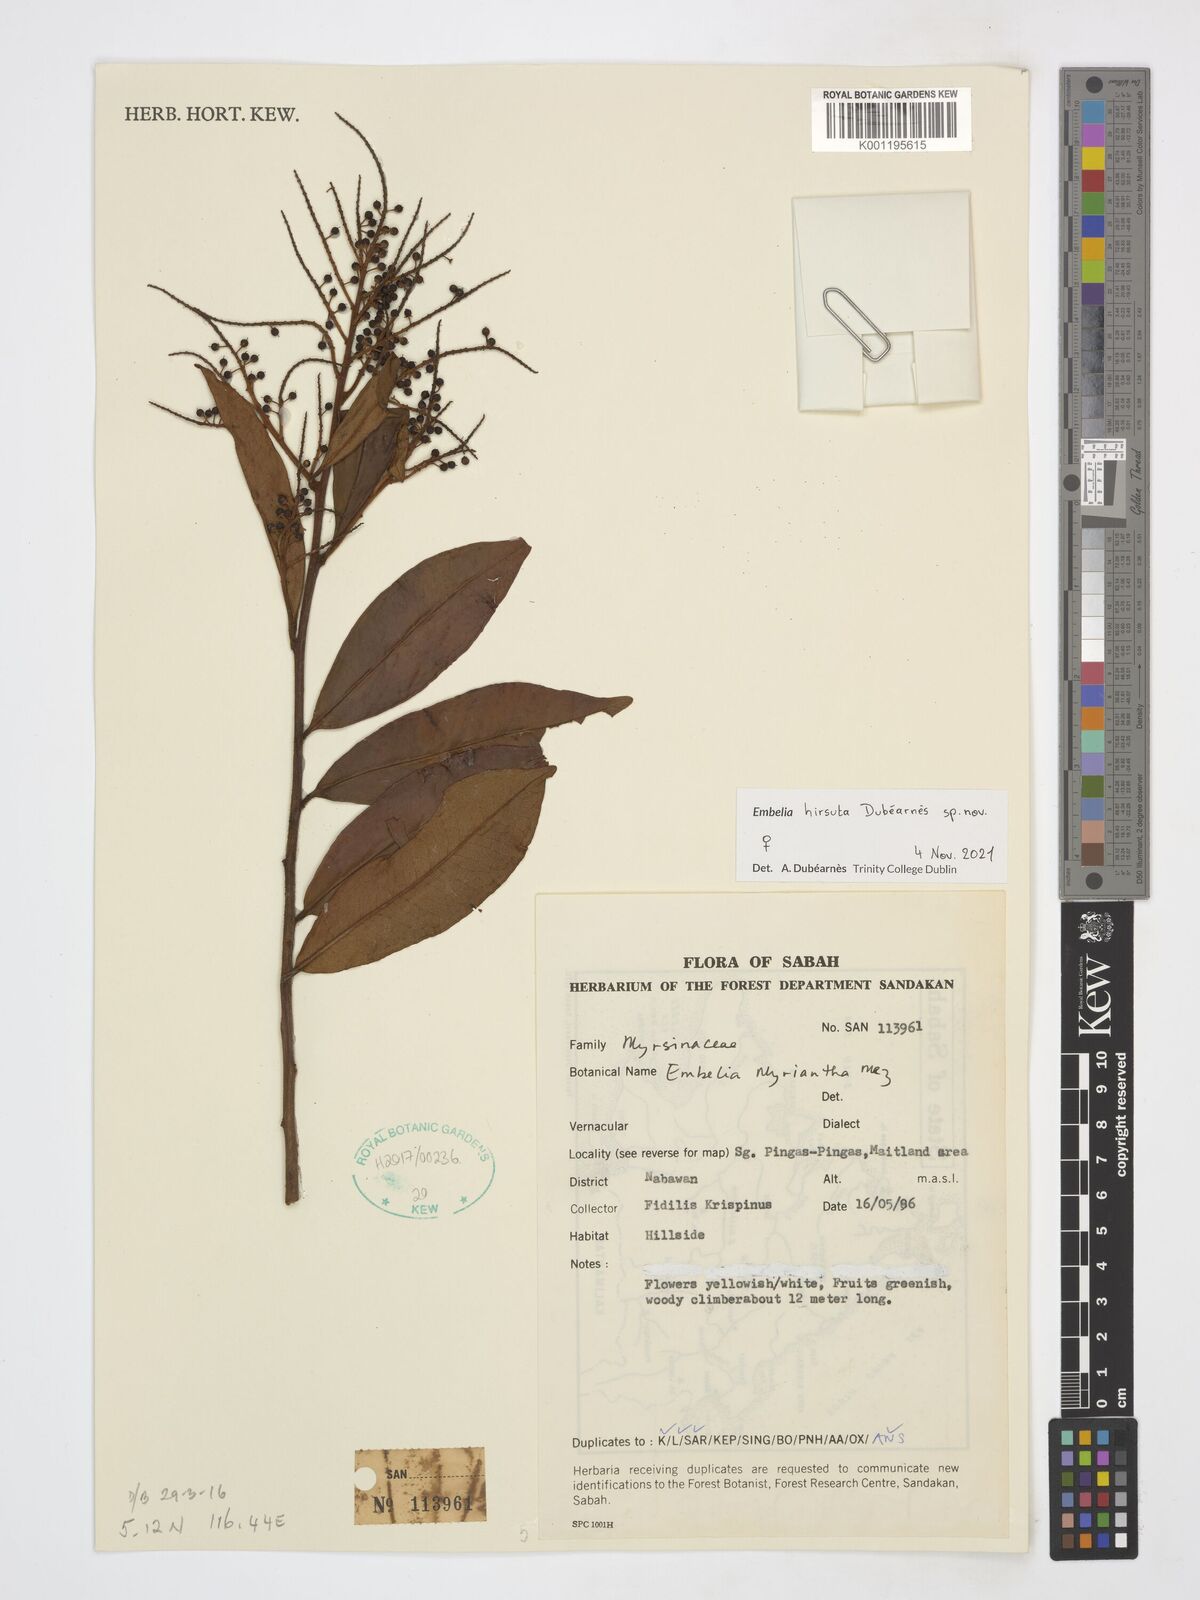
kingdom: Plantae
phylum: Tracheophyta
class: Magnoliopsida
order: Ericales
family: Primulaceae
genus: Embelia
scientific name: Embelia
